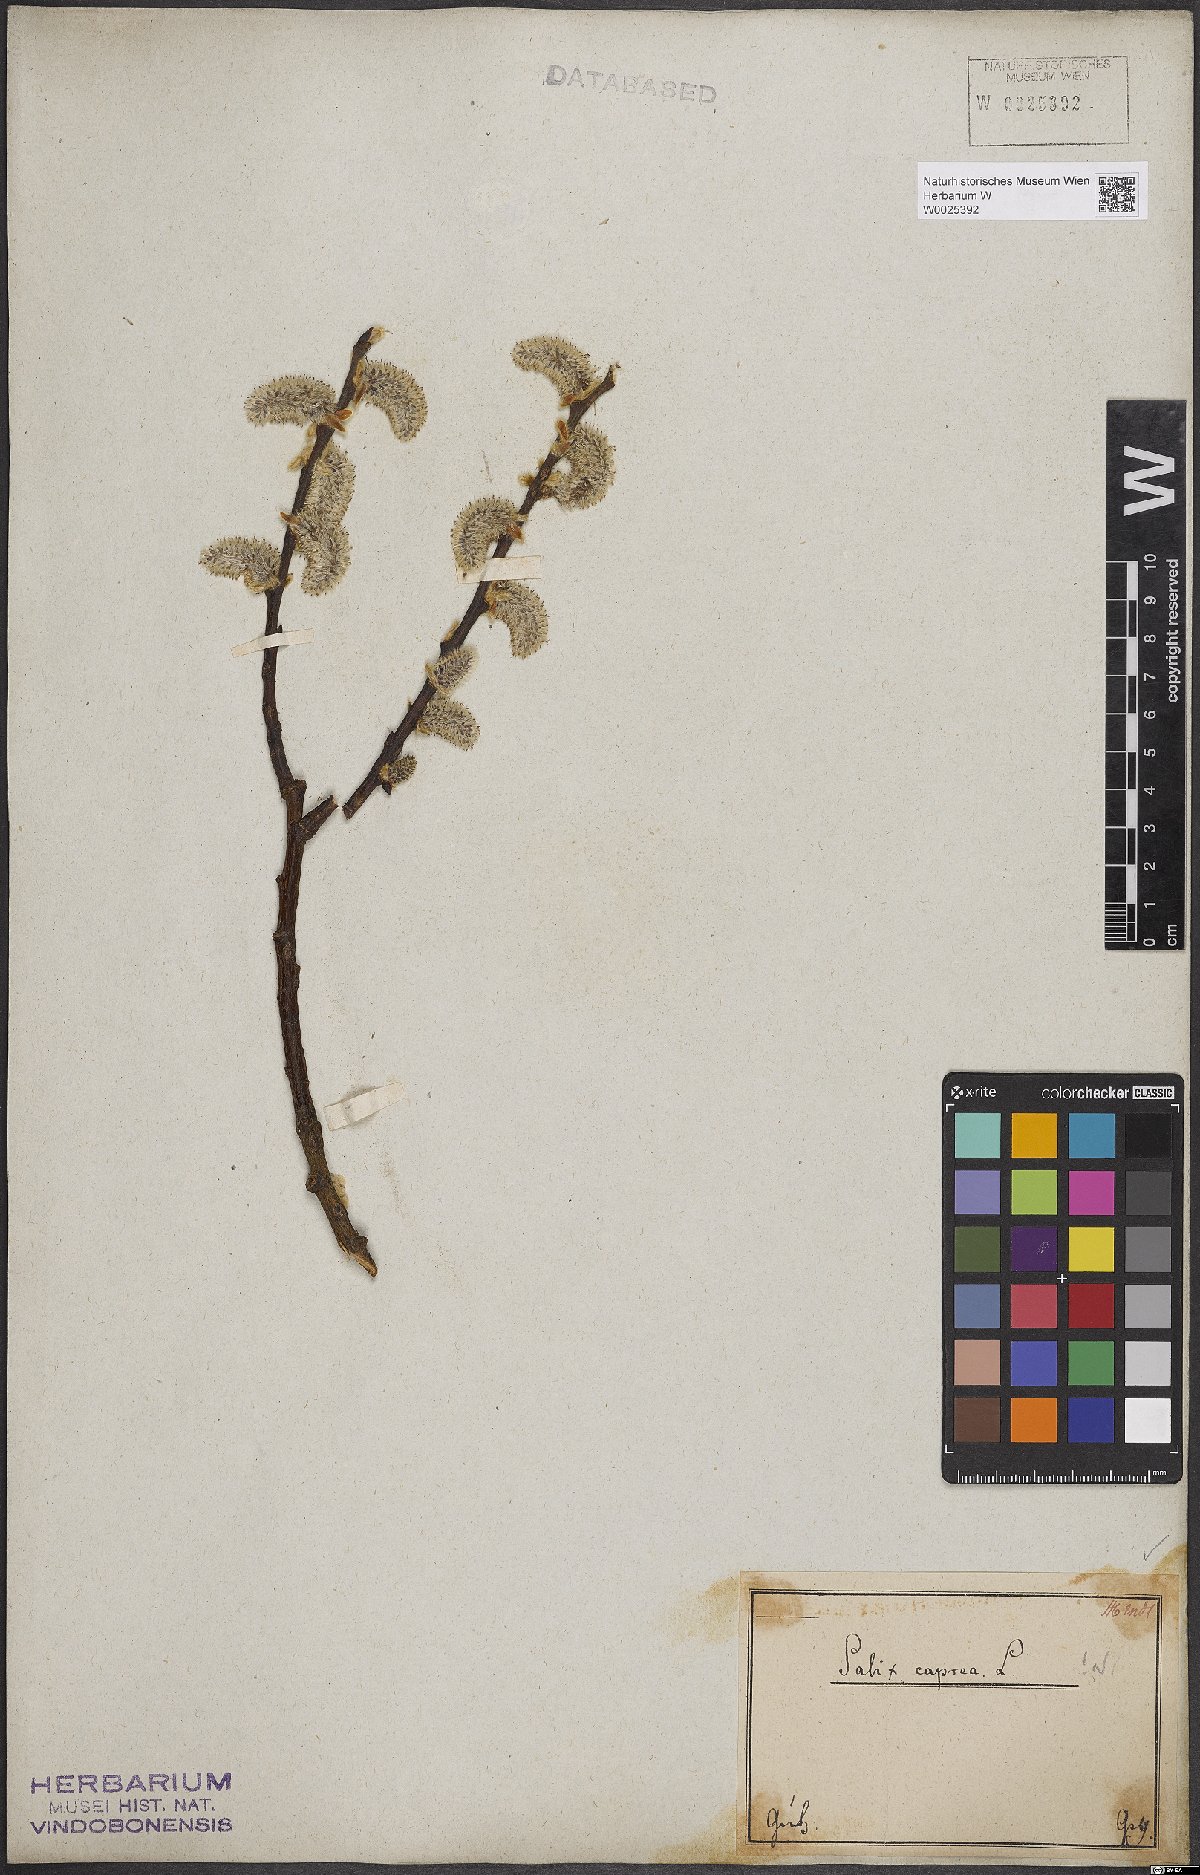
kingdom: Plantae
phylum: Tracheophyta
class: Magnoliopsida
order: Malpighiales
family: Salicaceae
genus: Salix
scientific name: Salix caprea
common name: Goat willow
